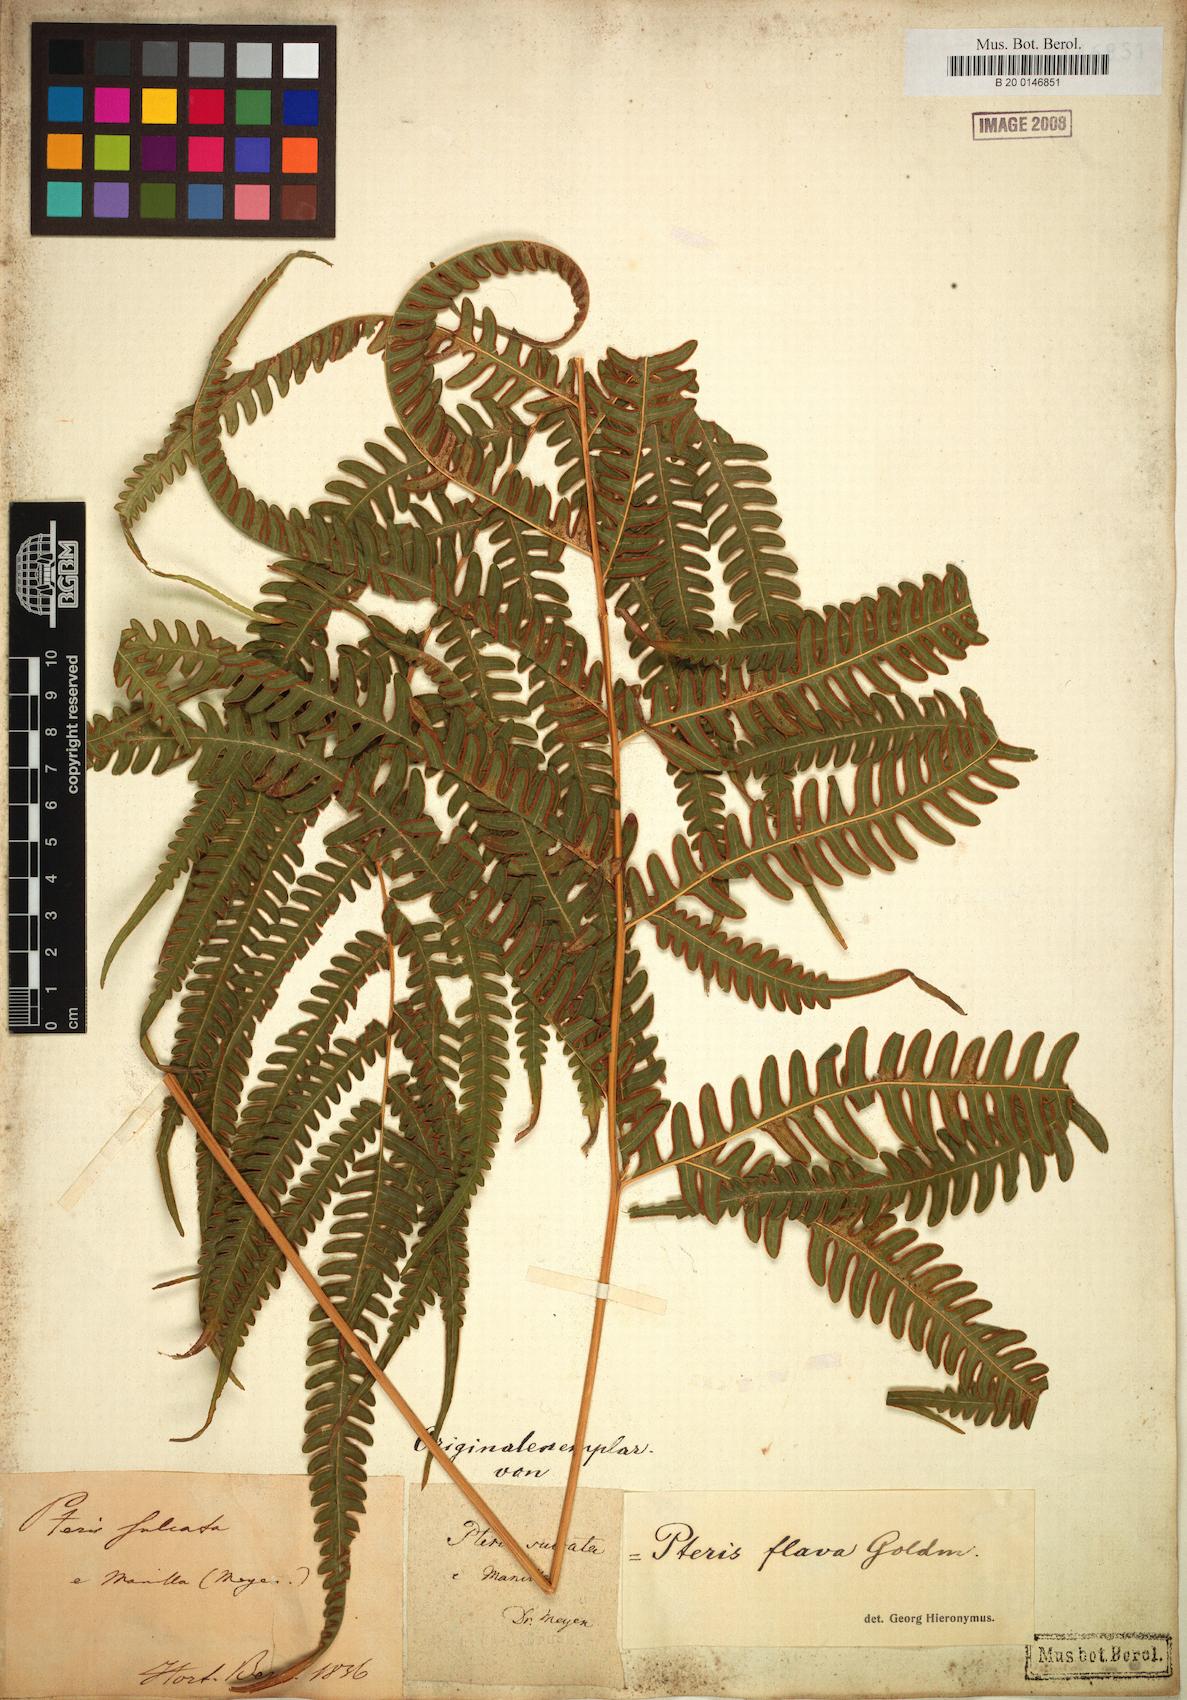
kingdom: Plantae
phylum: Tracheophyta
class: Polypodiopsida
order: Polypodiales
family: Pteridaceae
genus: Pteris
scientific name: Pteris glaucovirens
